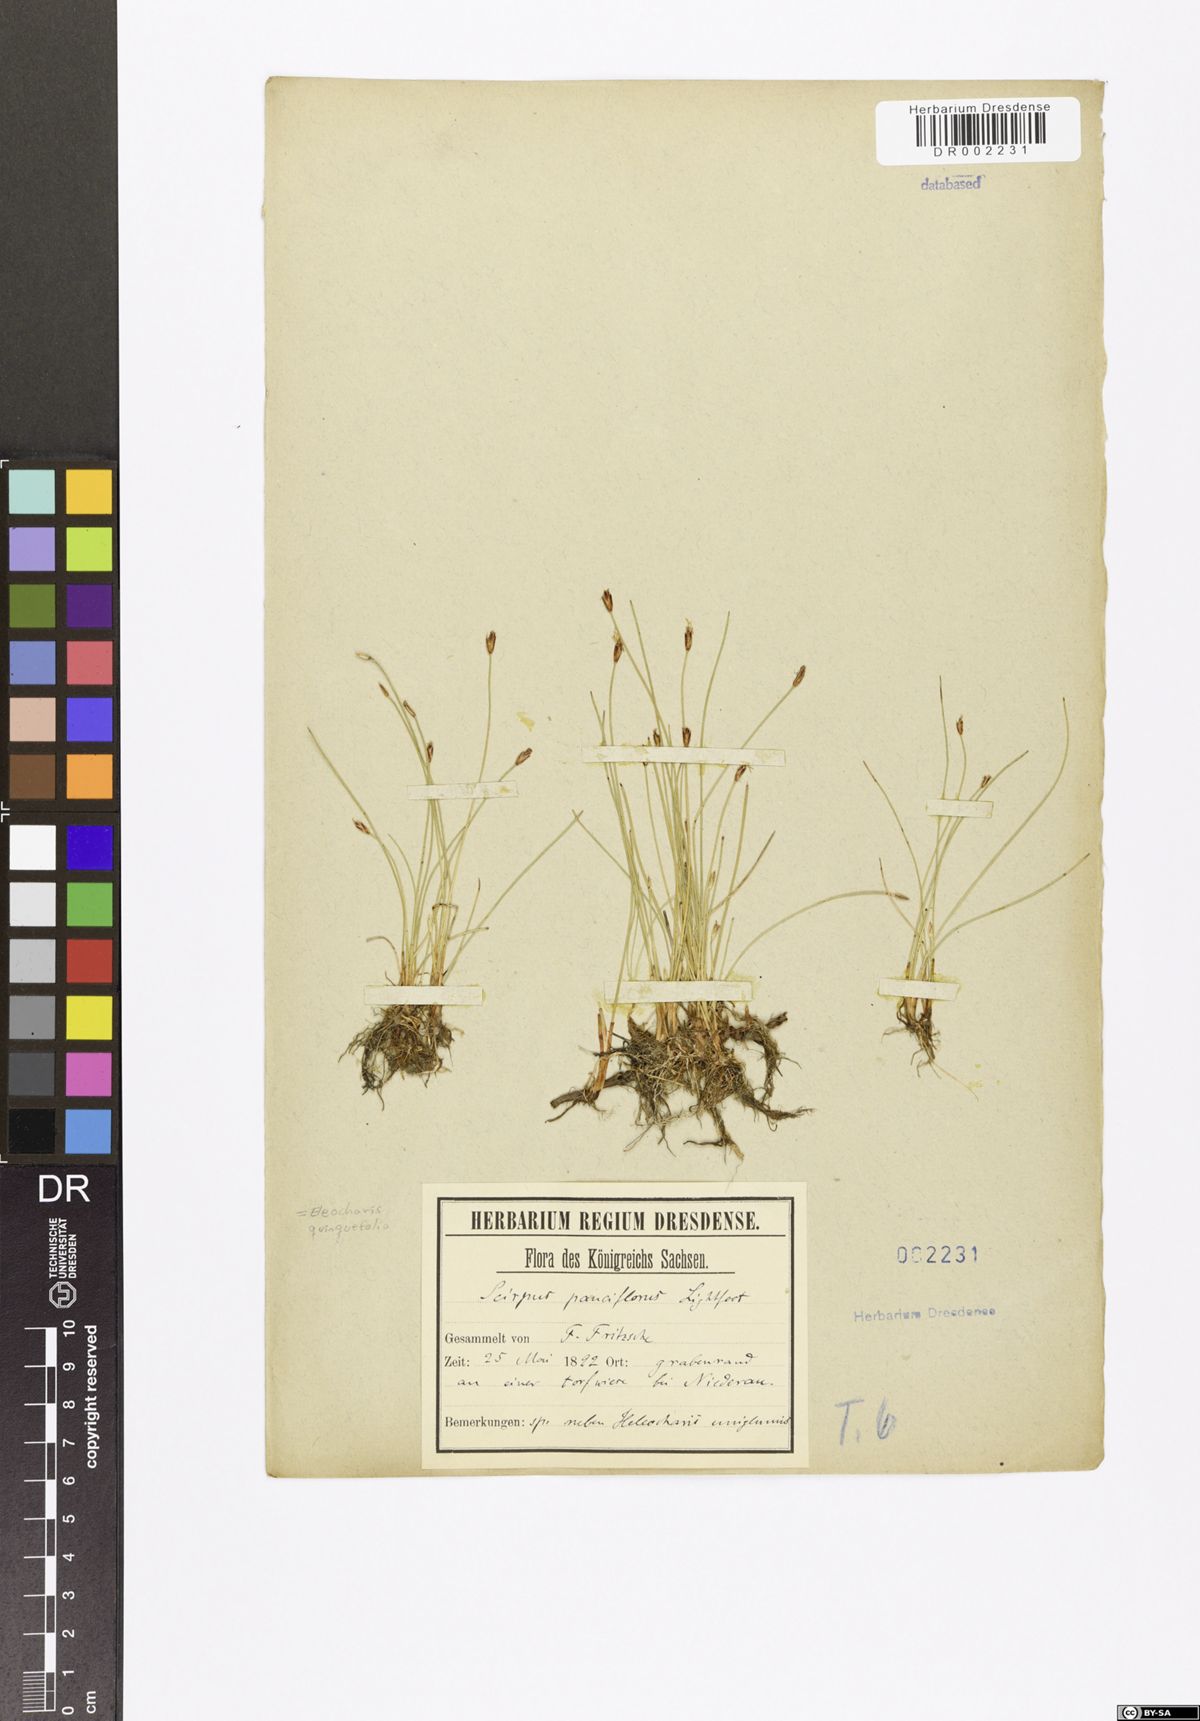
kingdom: Plantae
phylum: Tracheophyta
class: Liliopsida
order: Poales
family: Cyperaceae
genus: Eleocharis
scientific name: Eleocharis quinqueflora
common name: Few-flowered spike-rush
